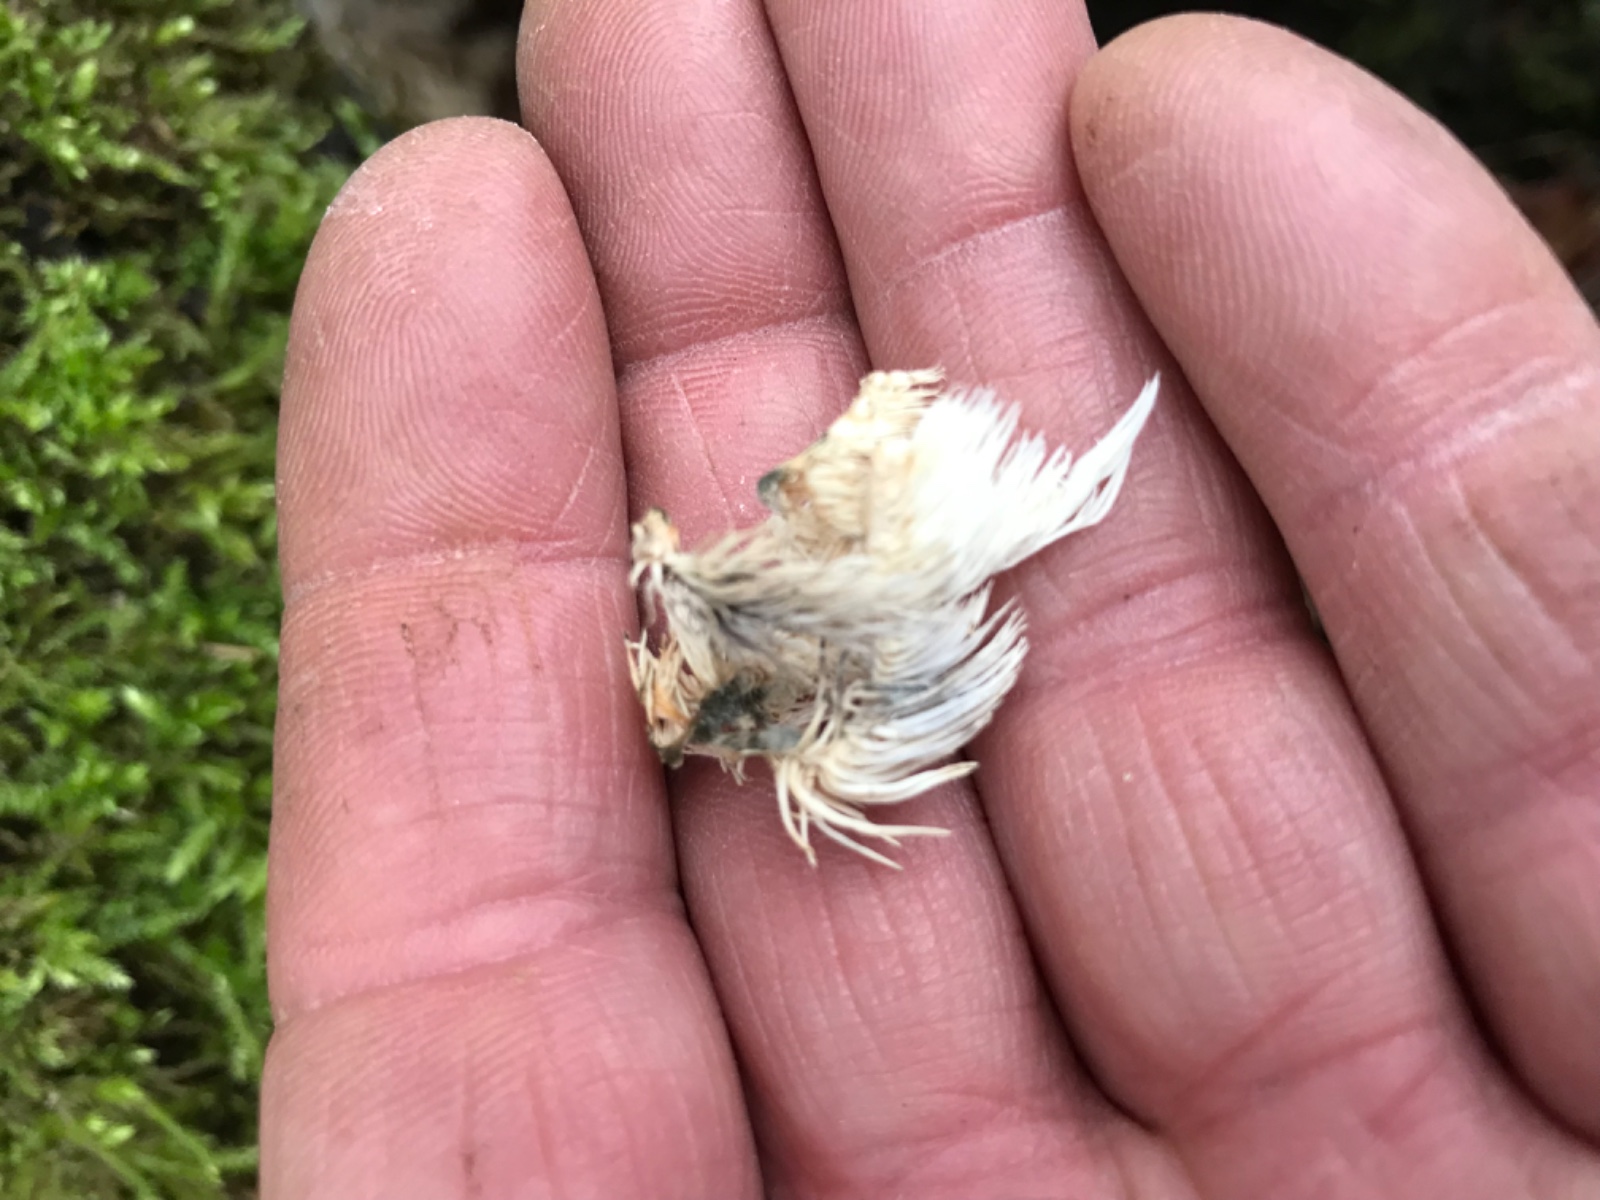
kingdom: Fungi
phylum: Basidiomycota
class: Agaricomycetes
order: Russulales
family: Hericiaceae
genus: Hericium
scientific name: Hericium coralloides
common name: koralpigsvamp
